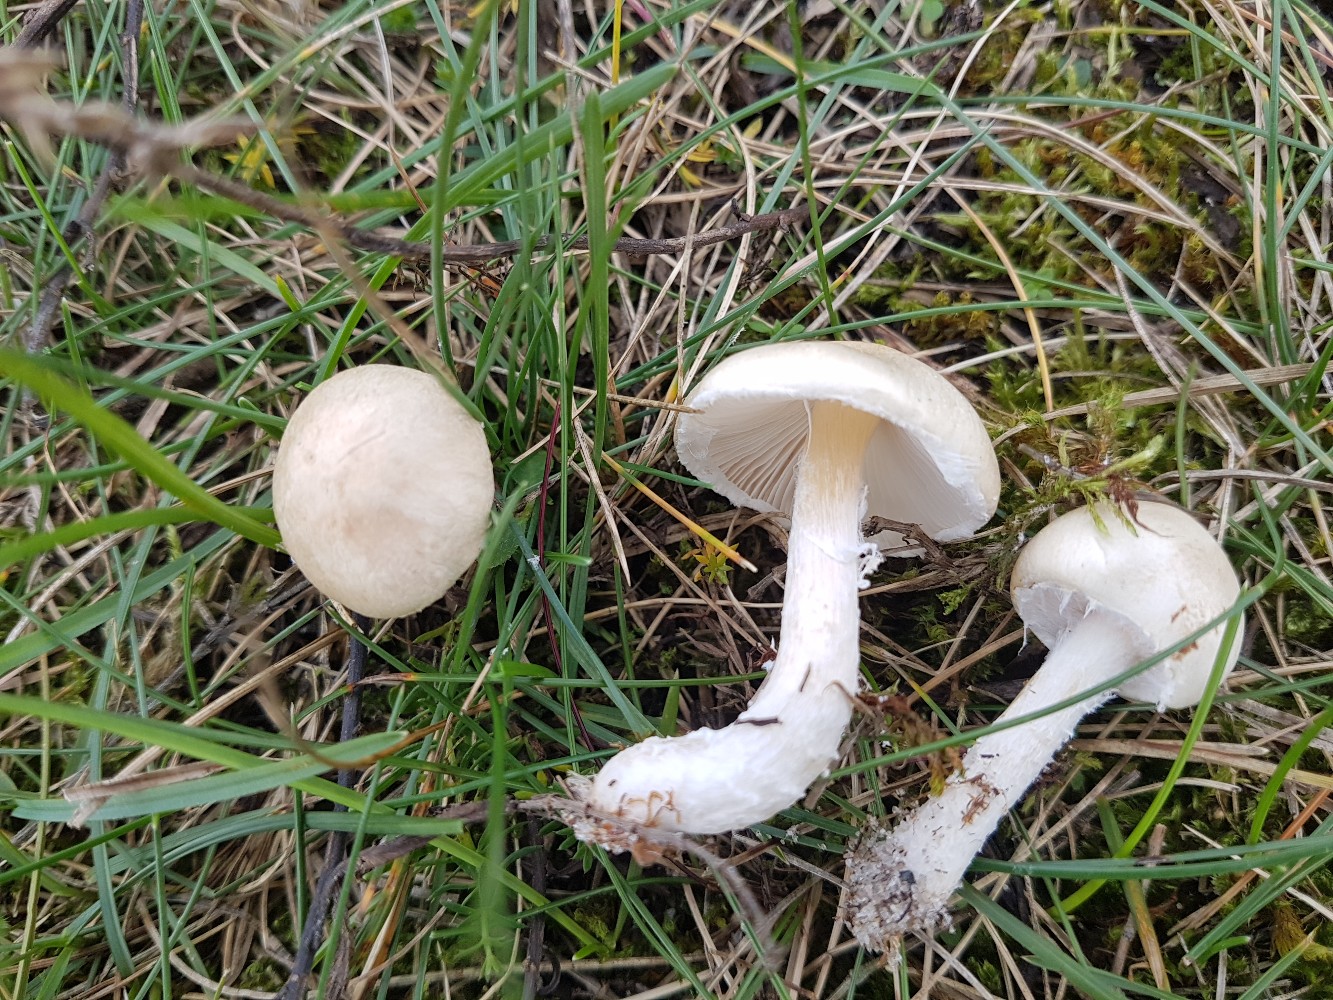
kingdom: Fungi
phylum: Basidiomycota
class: Agaricomycetes
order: Agaricales
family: Agaricaceae
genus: Lepiota
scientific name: Lepiota erminea
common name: hvid parasolhat
